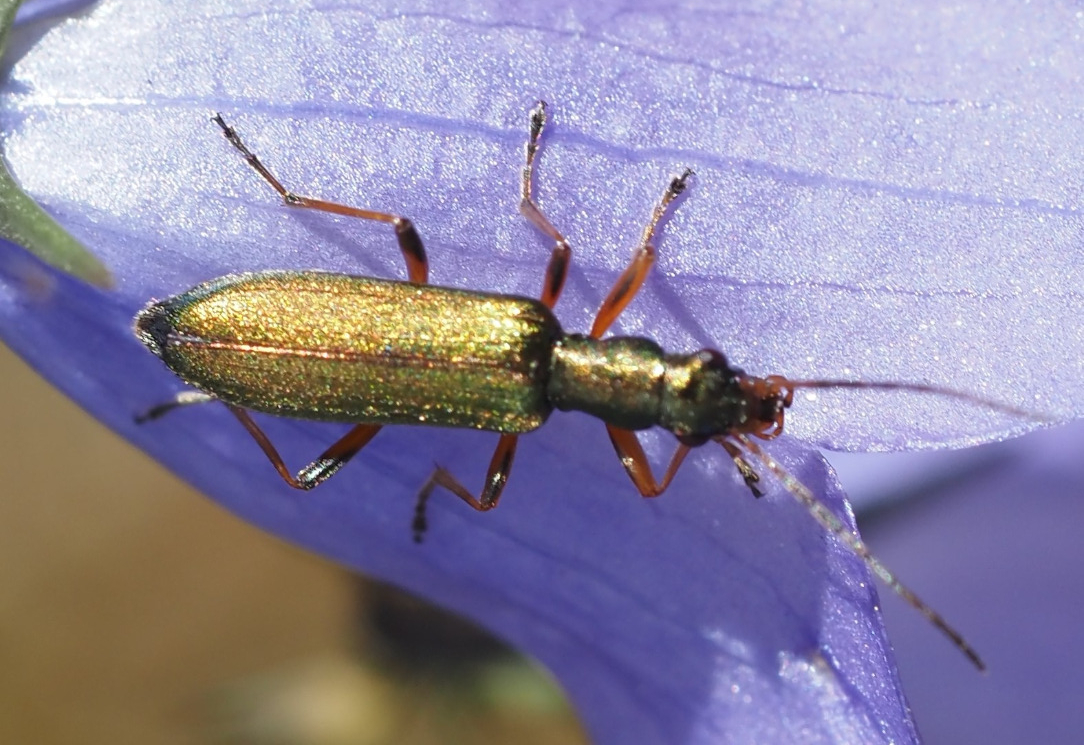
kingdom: Animalia
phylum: Arthropoda
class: Insecta
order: Coleoptera
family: Oedemeridae
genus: Chrysanthia
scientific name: Chrysanthia geniculata
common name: Grøn solbille
